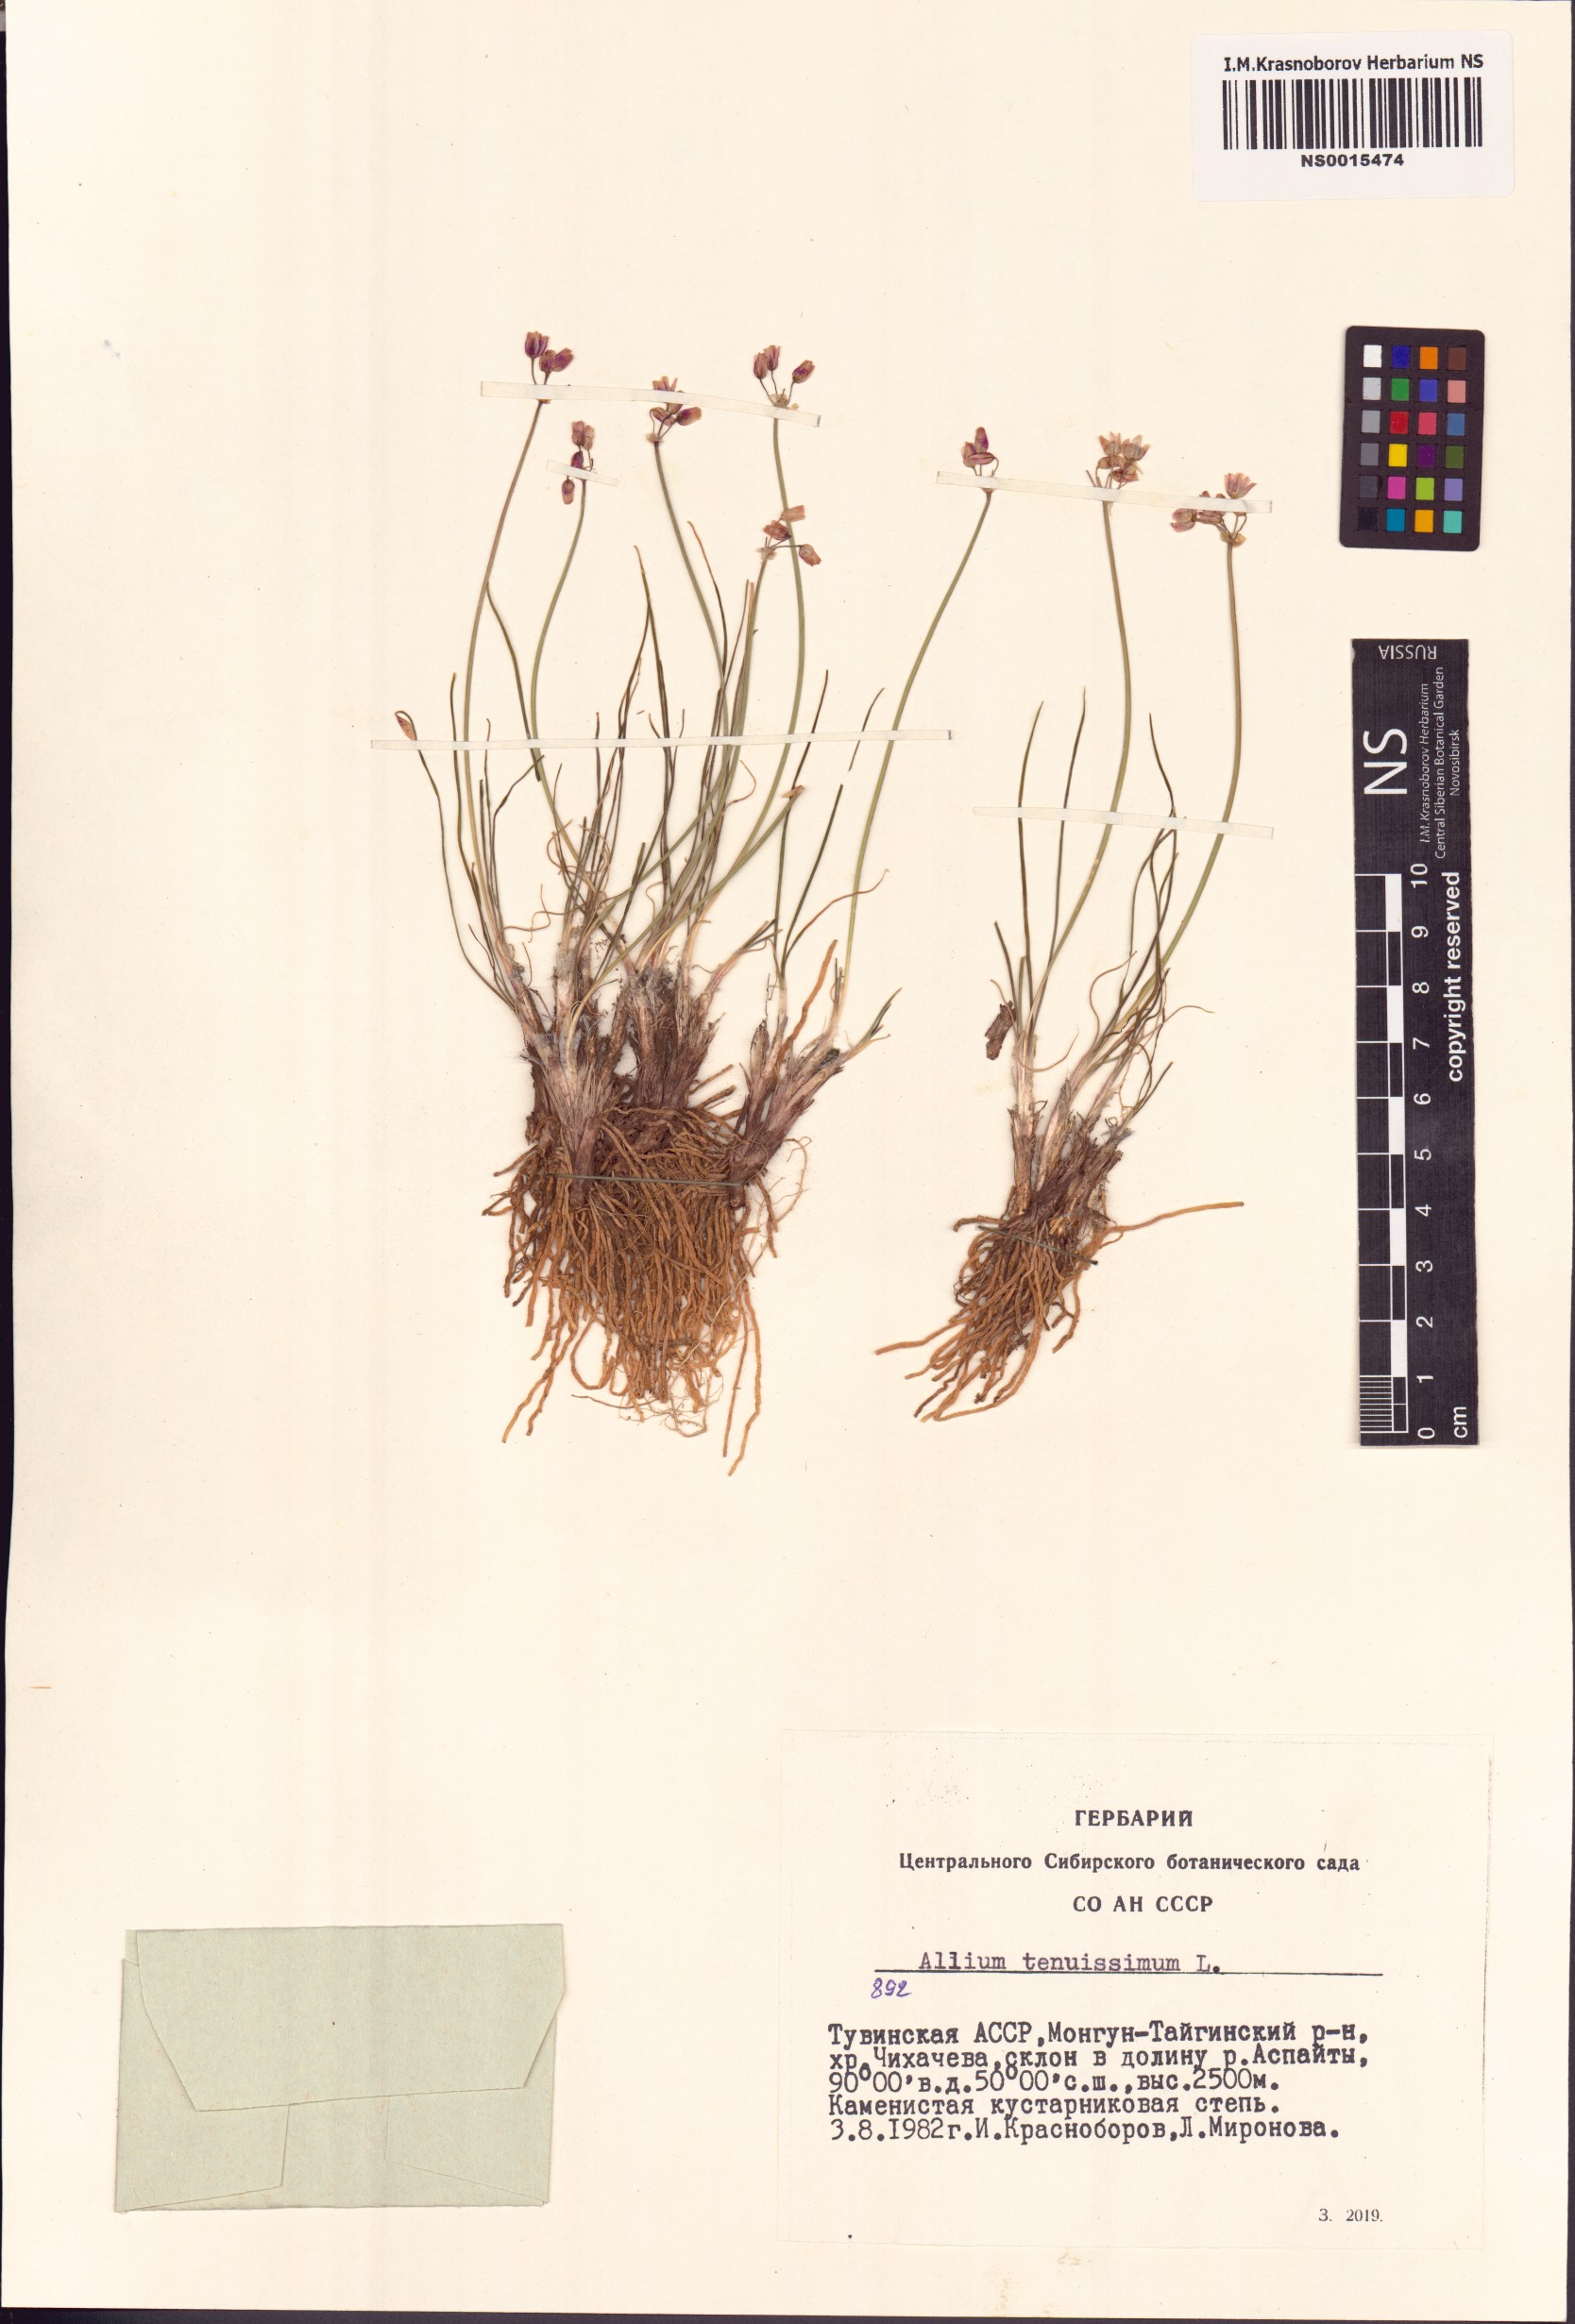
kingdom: Plantae
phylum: Tracheophyta
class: Liliopsida
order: Asparagales
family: Amaryllidaceae
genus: Allium
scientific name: Allium tenuissimum
